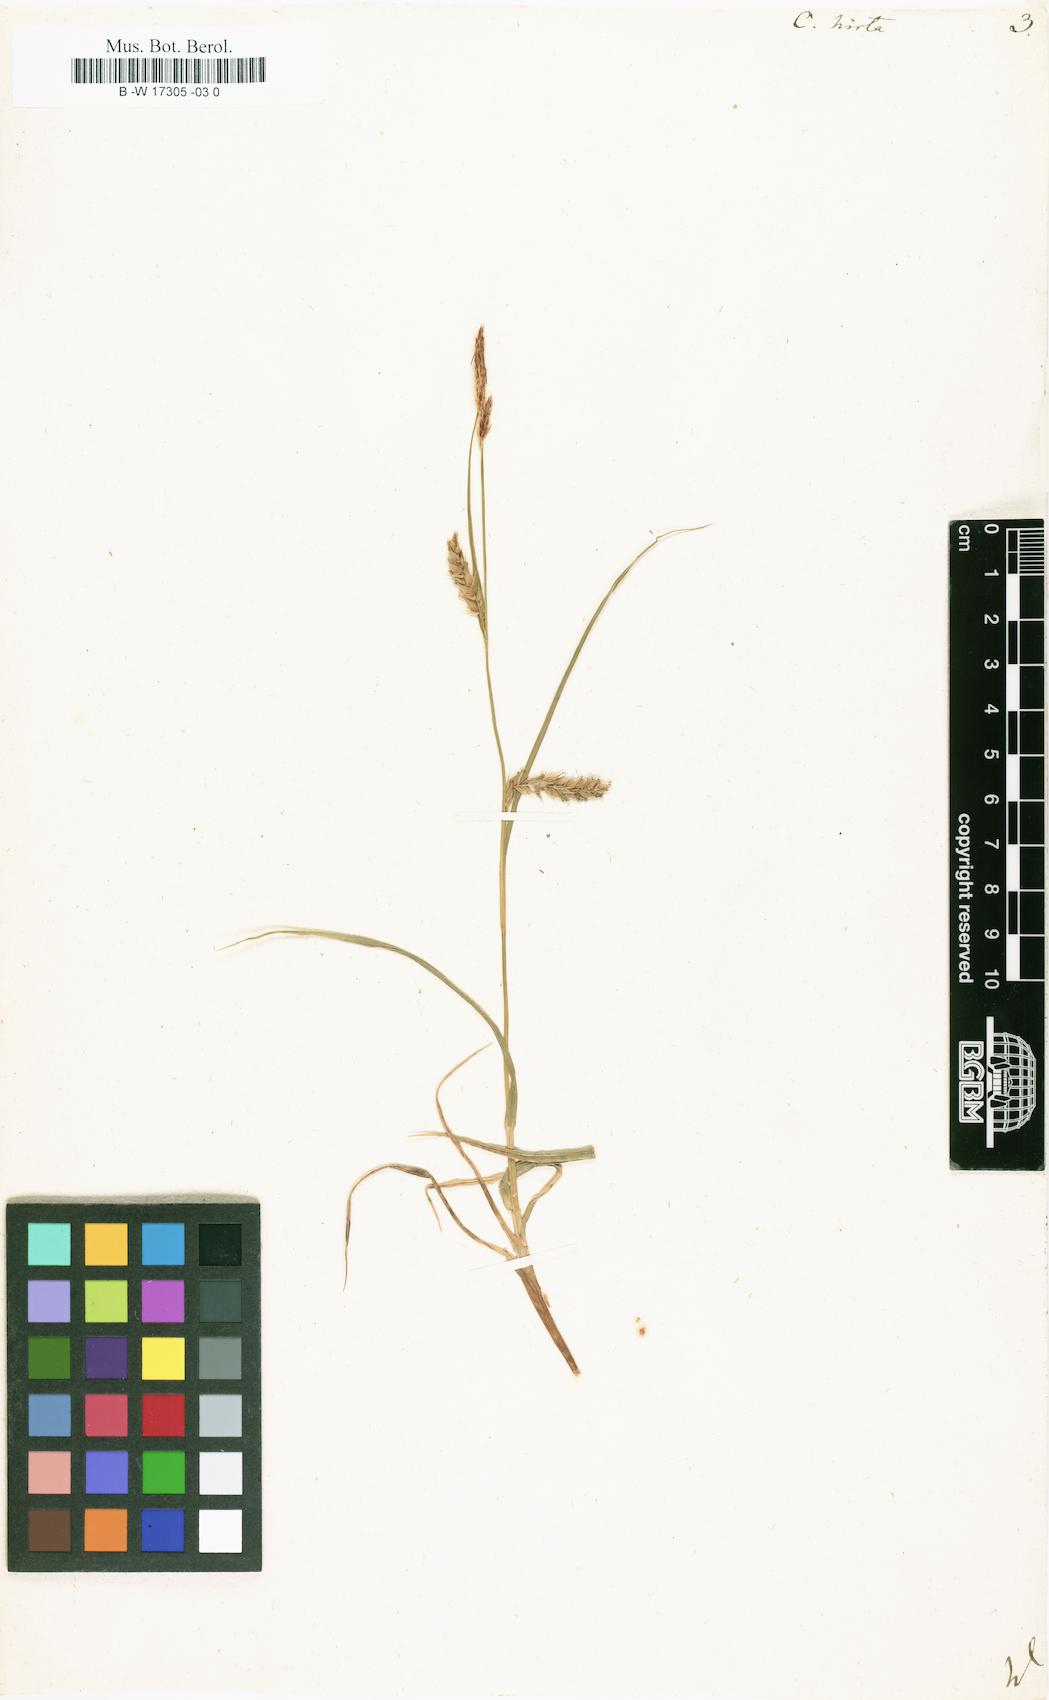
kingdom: Plantae
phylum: Tracheophyta
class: Liliopsida
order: Poales
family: Cyperaceae
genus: Carex
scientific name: Carex hirta
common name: Hairy sedge
